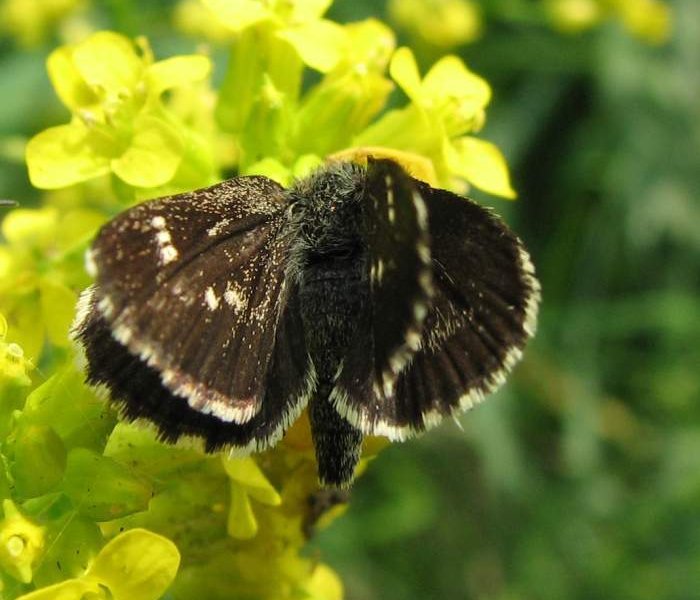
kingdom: Animalia
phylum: Arthropoda
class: Insecta
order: Lepidoptera
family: Hesperiidae
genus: Mastor
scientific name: Mastor hegon
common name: Pepper and Salt Skipper
